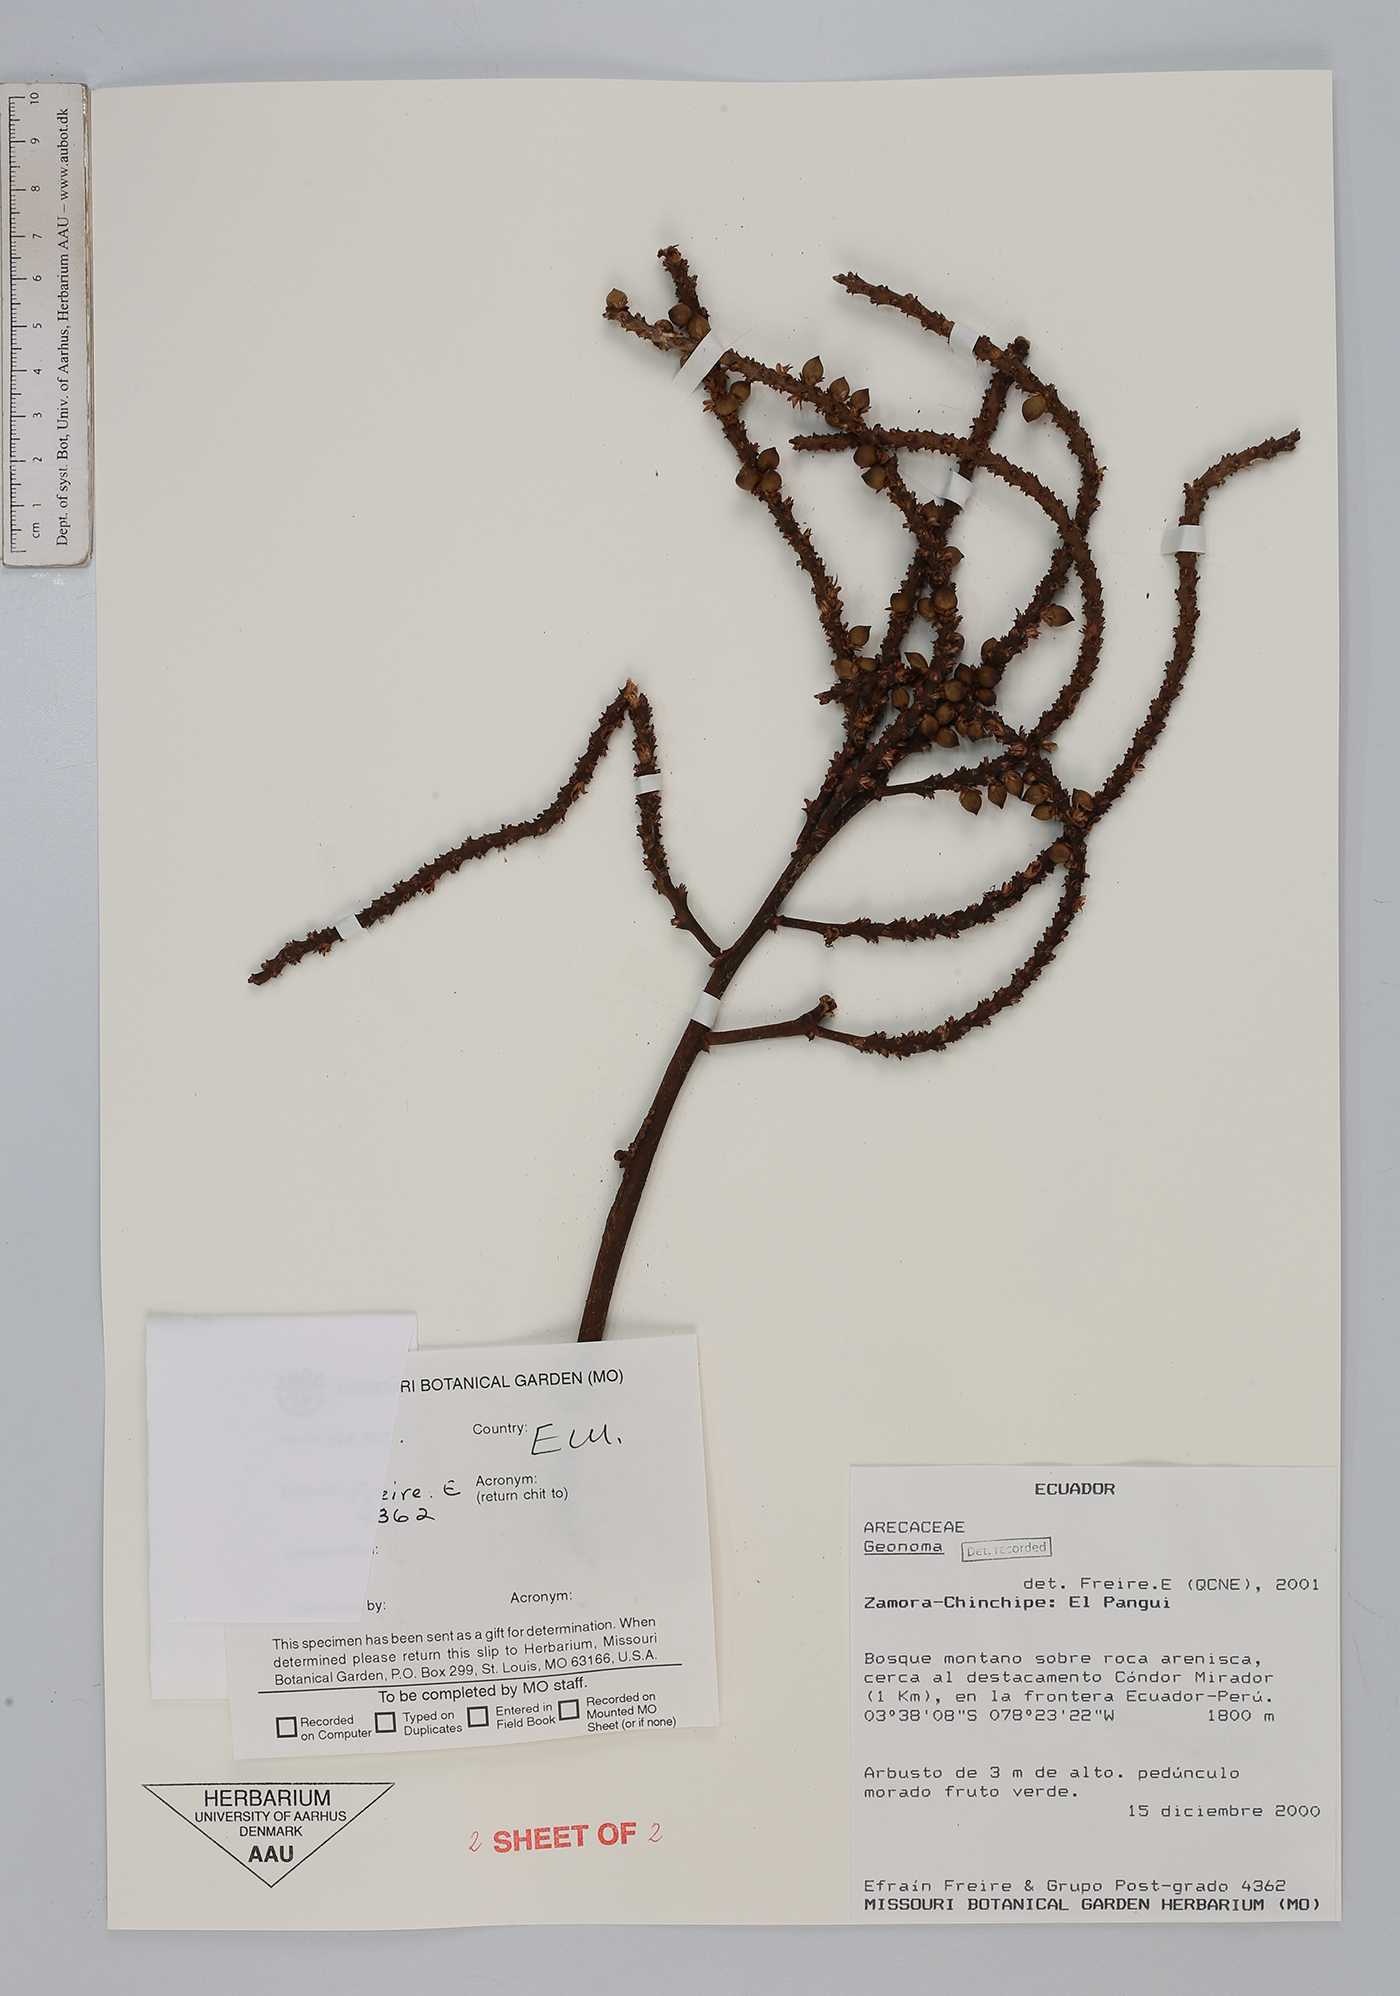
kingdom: Plantae
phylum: Tracheophyta
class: Liliopsida
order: Arecales
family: Arecaceae
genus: Geonoma
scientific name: Geonoma
